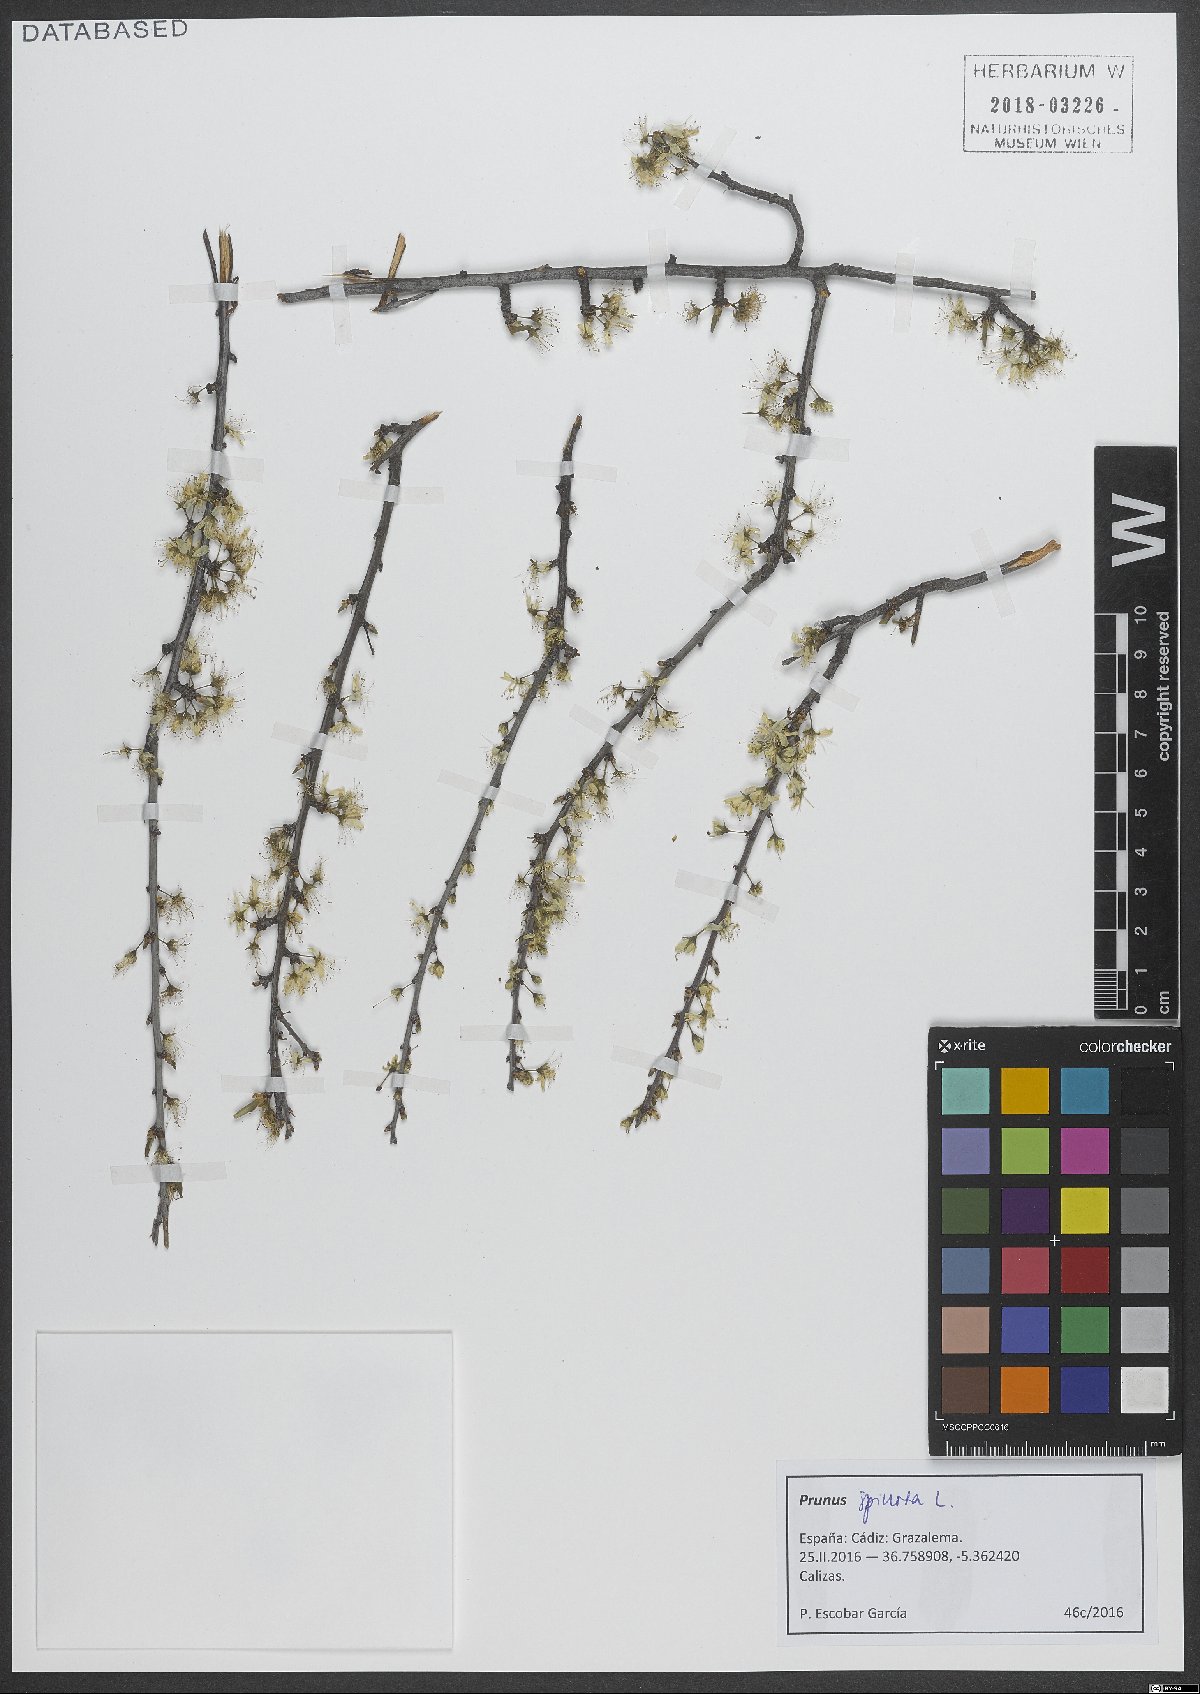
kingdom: Plantae
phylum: Tracheophyta
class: Magnoliopsida
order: Rosales
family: Rosaceae
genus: Prunus
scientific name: Prunus spinosa
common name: Blackthorn
